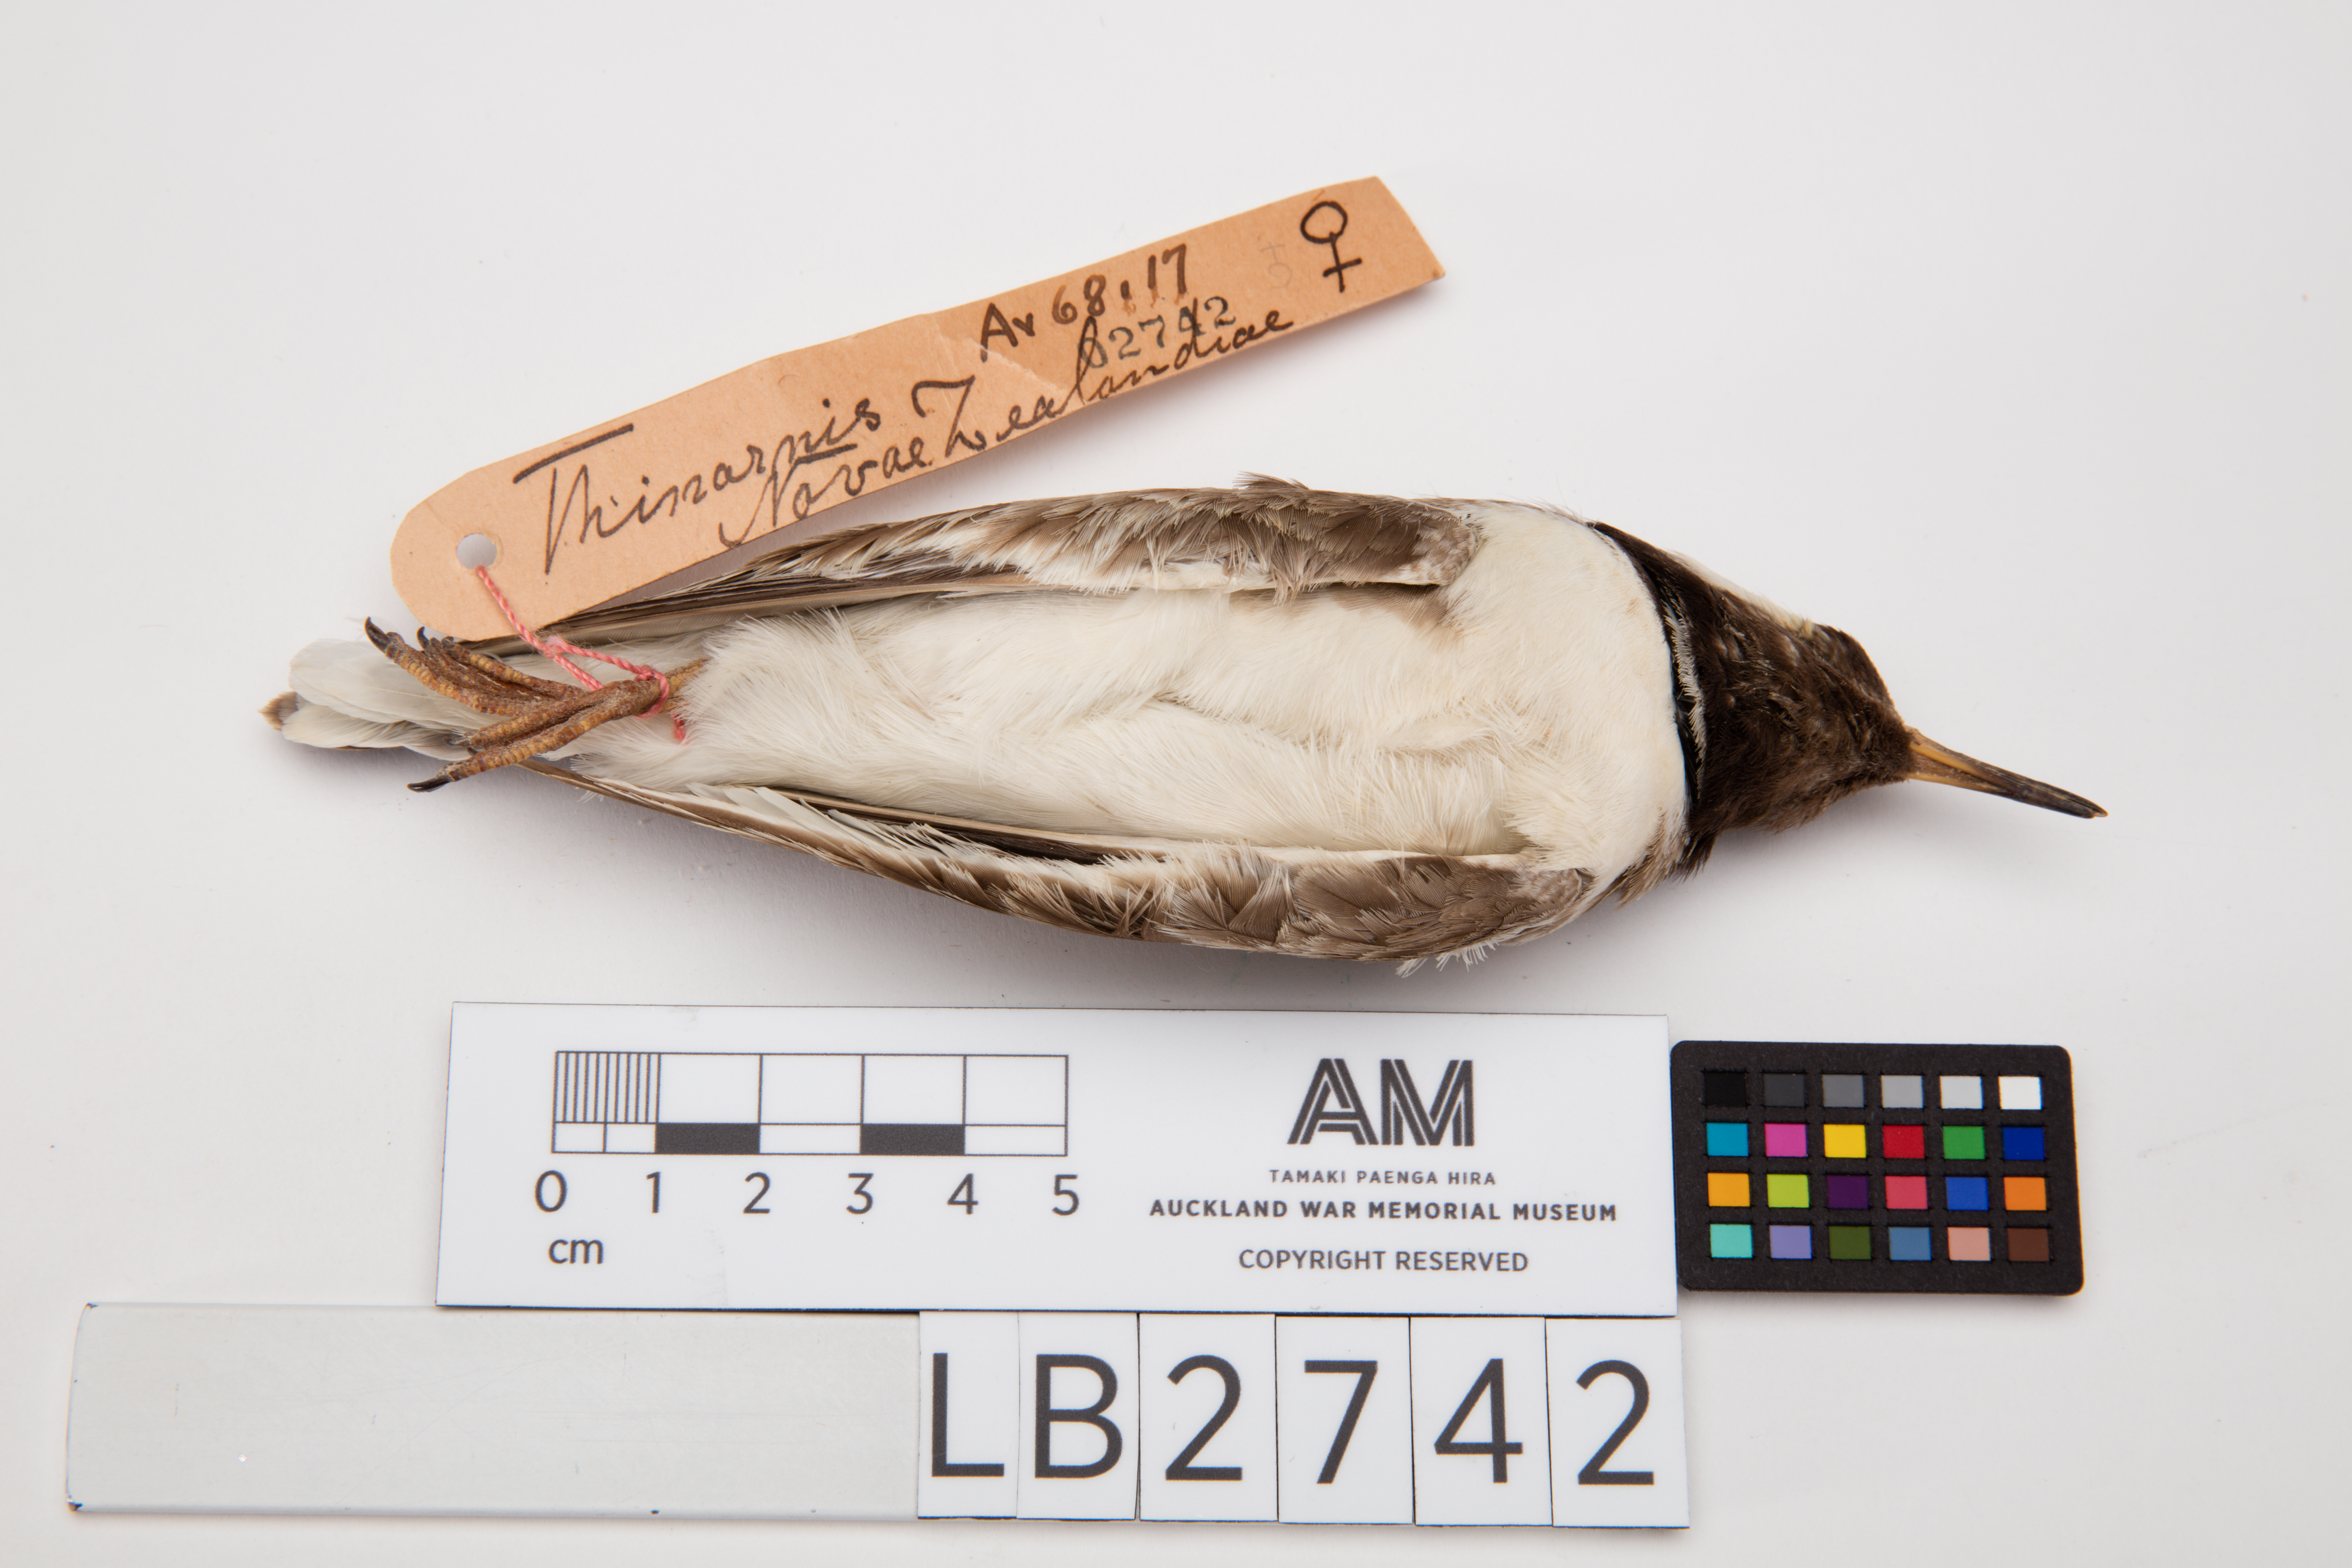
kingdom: Animalia
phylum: Chordata
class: Aves
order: Charadriiformes
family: Charadriidae
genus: Thinornis
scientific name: Thinornis novaeseelandiae
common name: Shore dotterel
